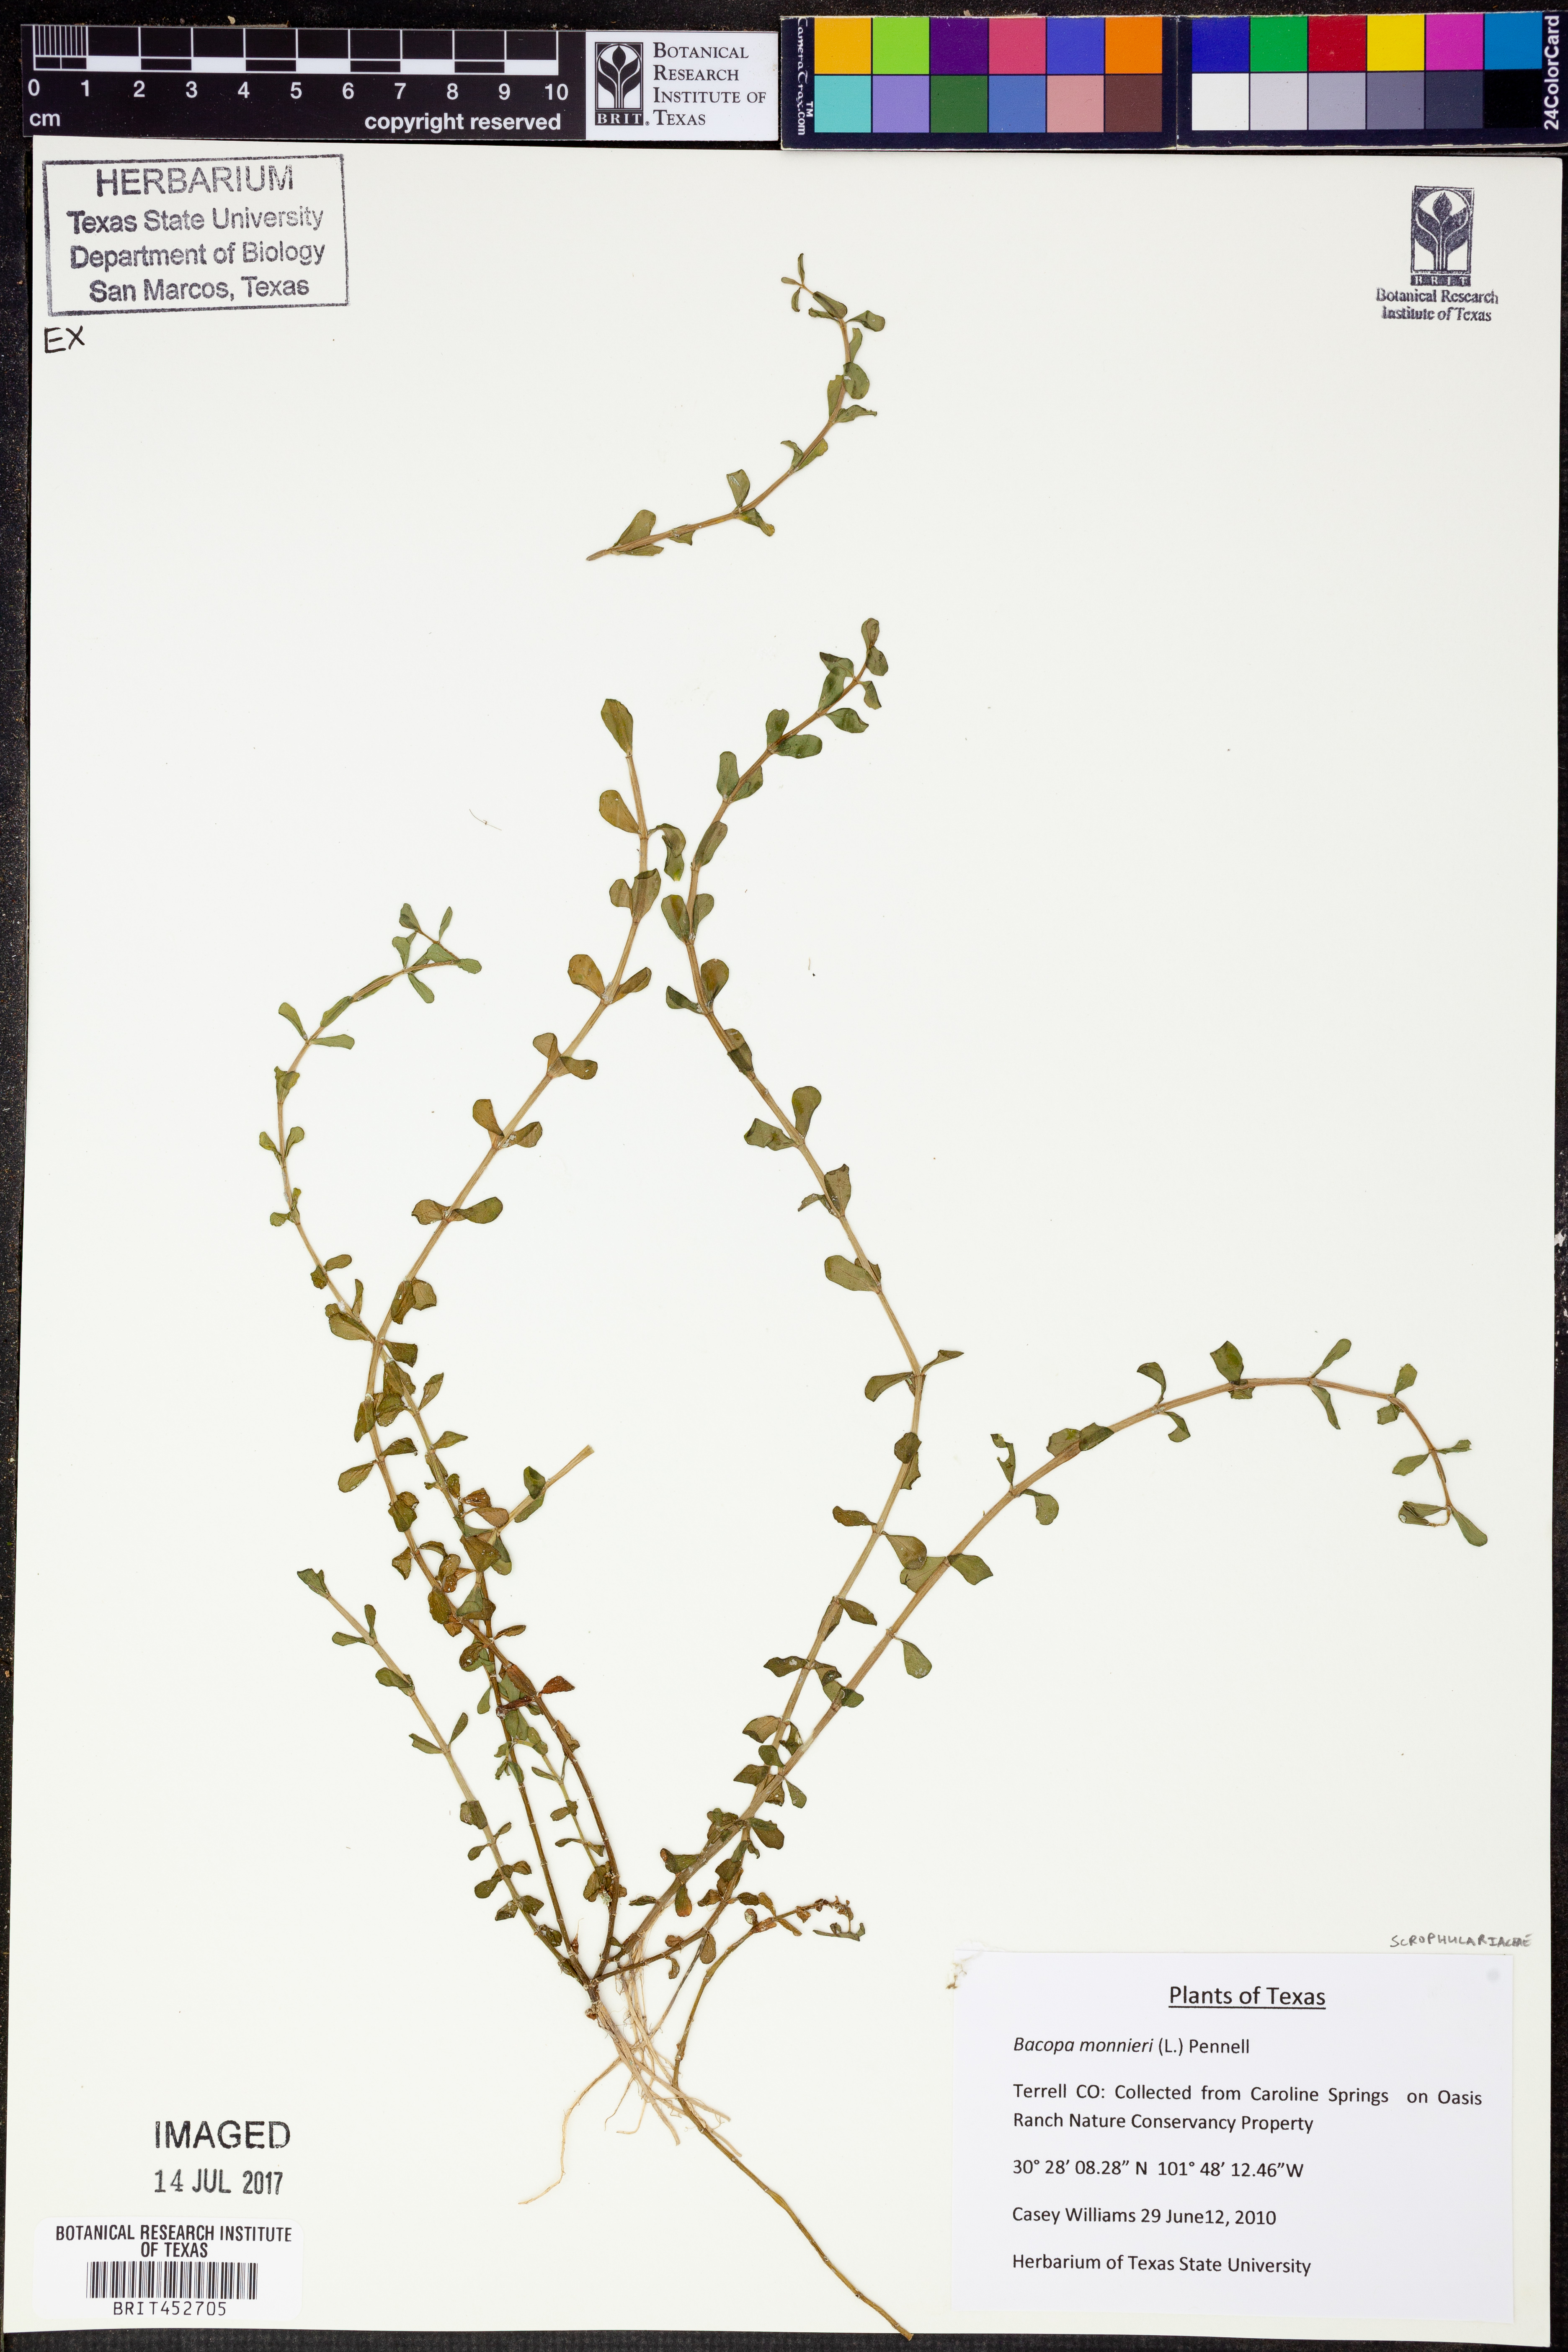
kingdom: Plantae
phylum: Tracheophyta
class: Magnoliopsida
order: Lamiales
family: Plantaginaceae
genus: Bacopa
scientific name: Bacopa monnieri
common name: Indian-pennywort
